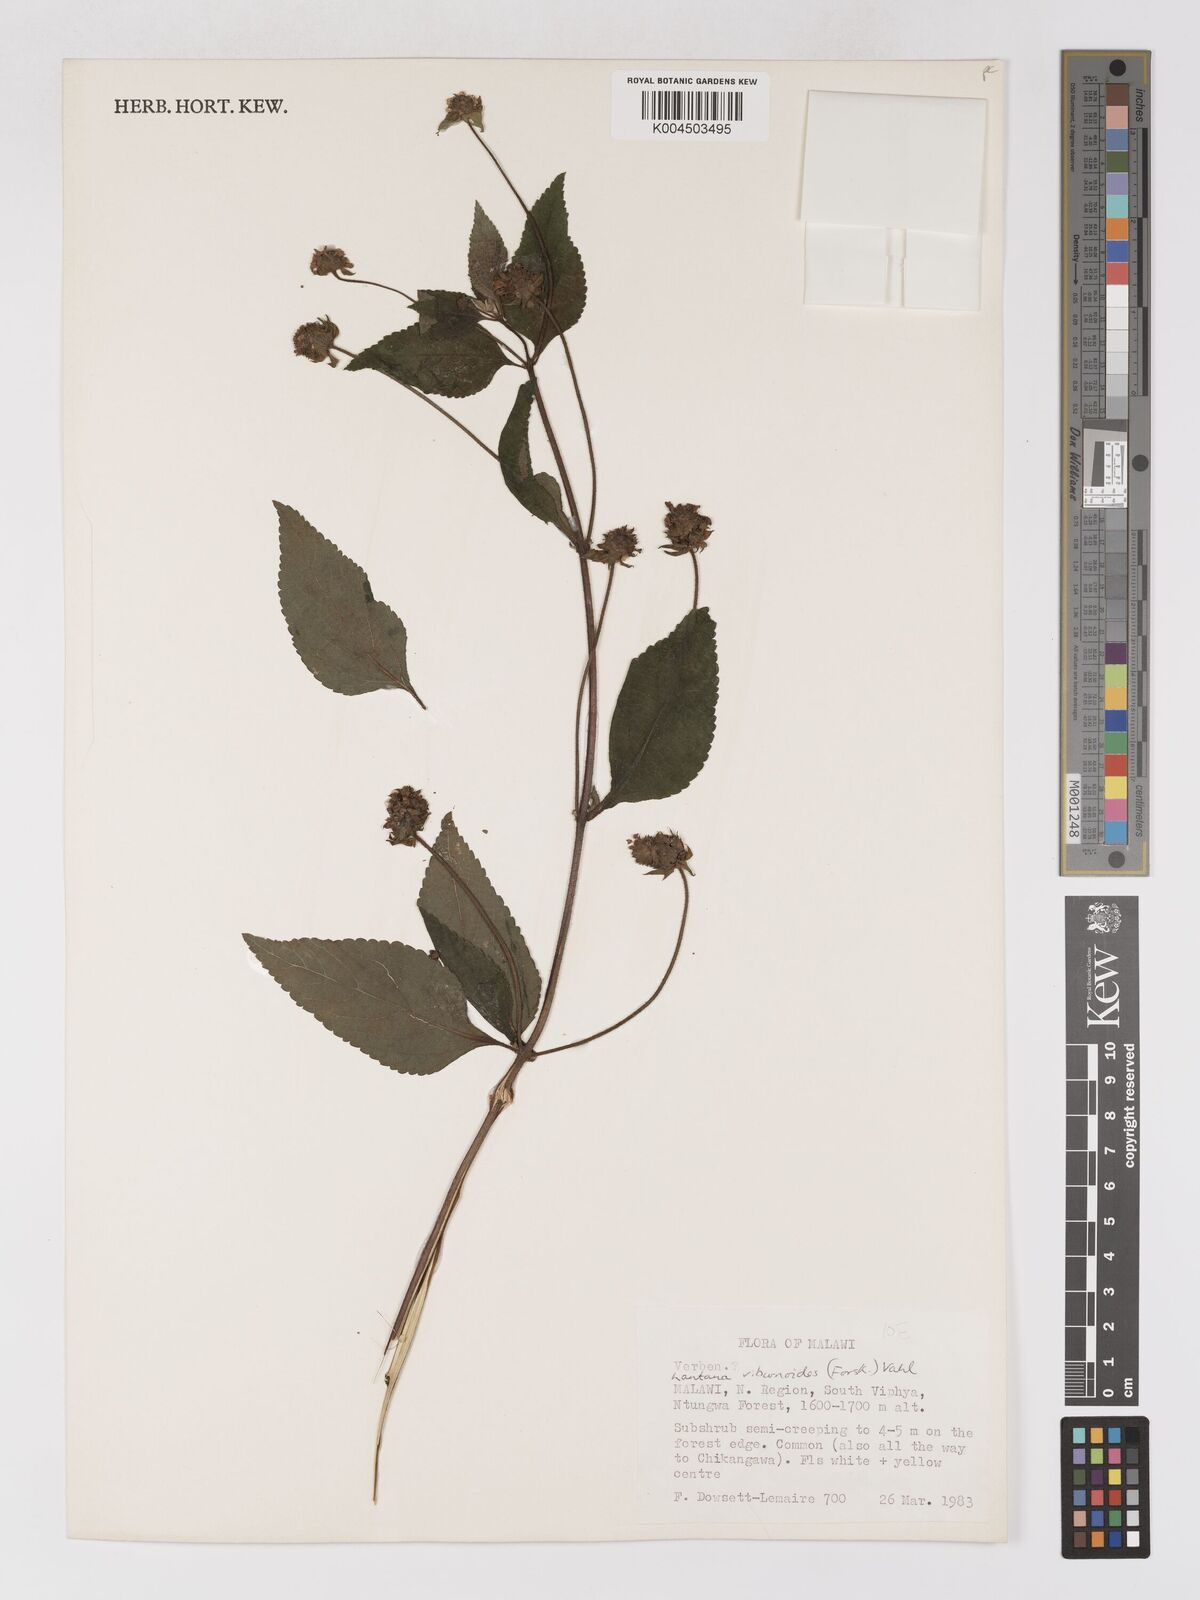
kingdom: Plantae
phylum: Tracheophyta
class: Magnoliopsida
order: Lamiales
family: Verbenaceae
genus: Lantana
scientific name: Lantana
